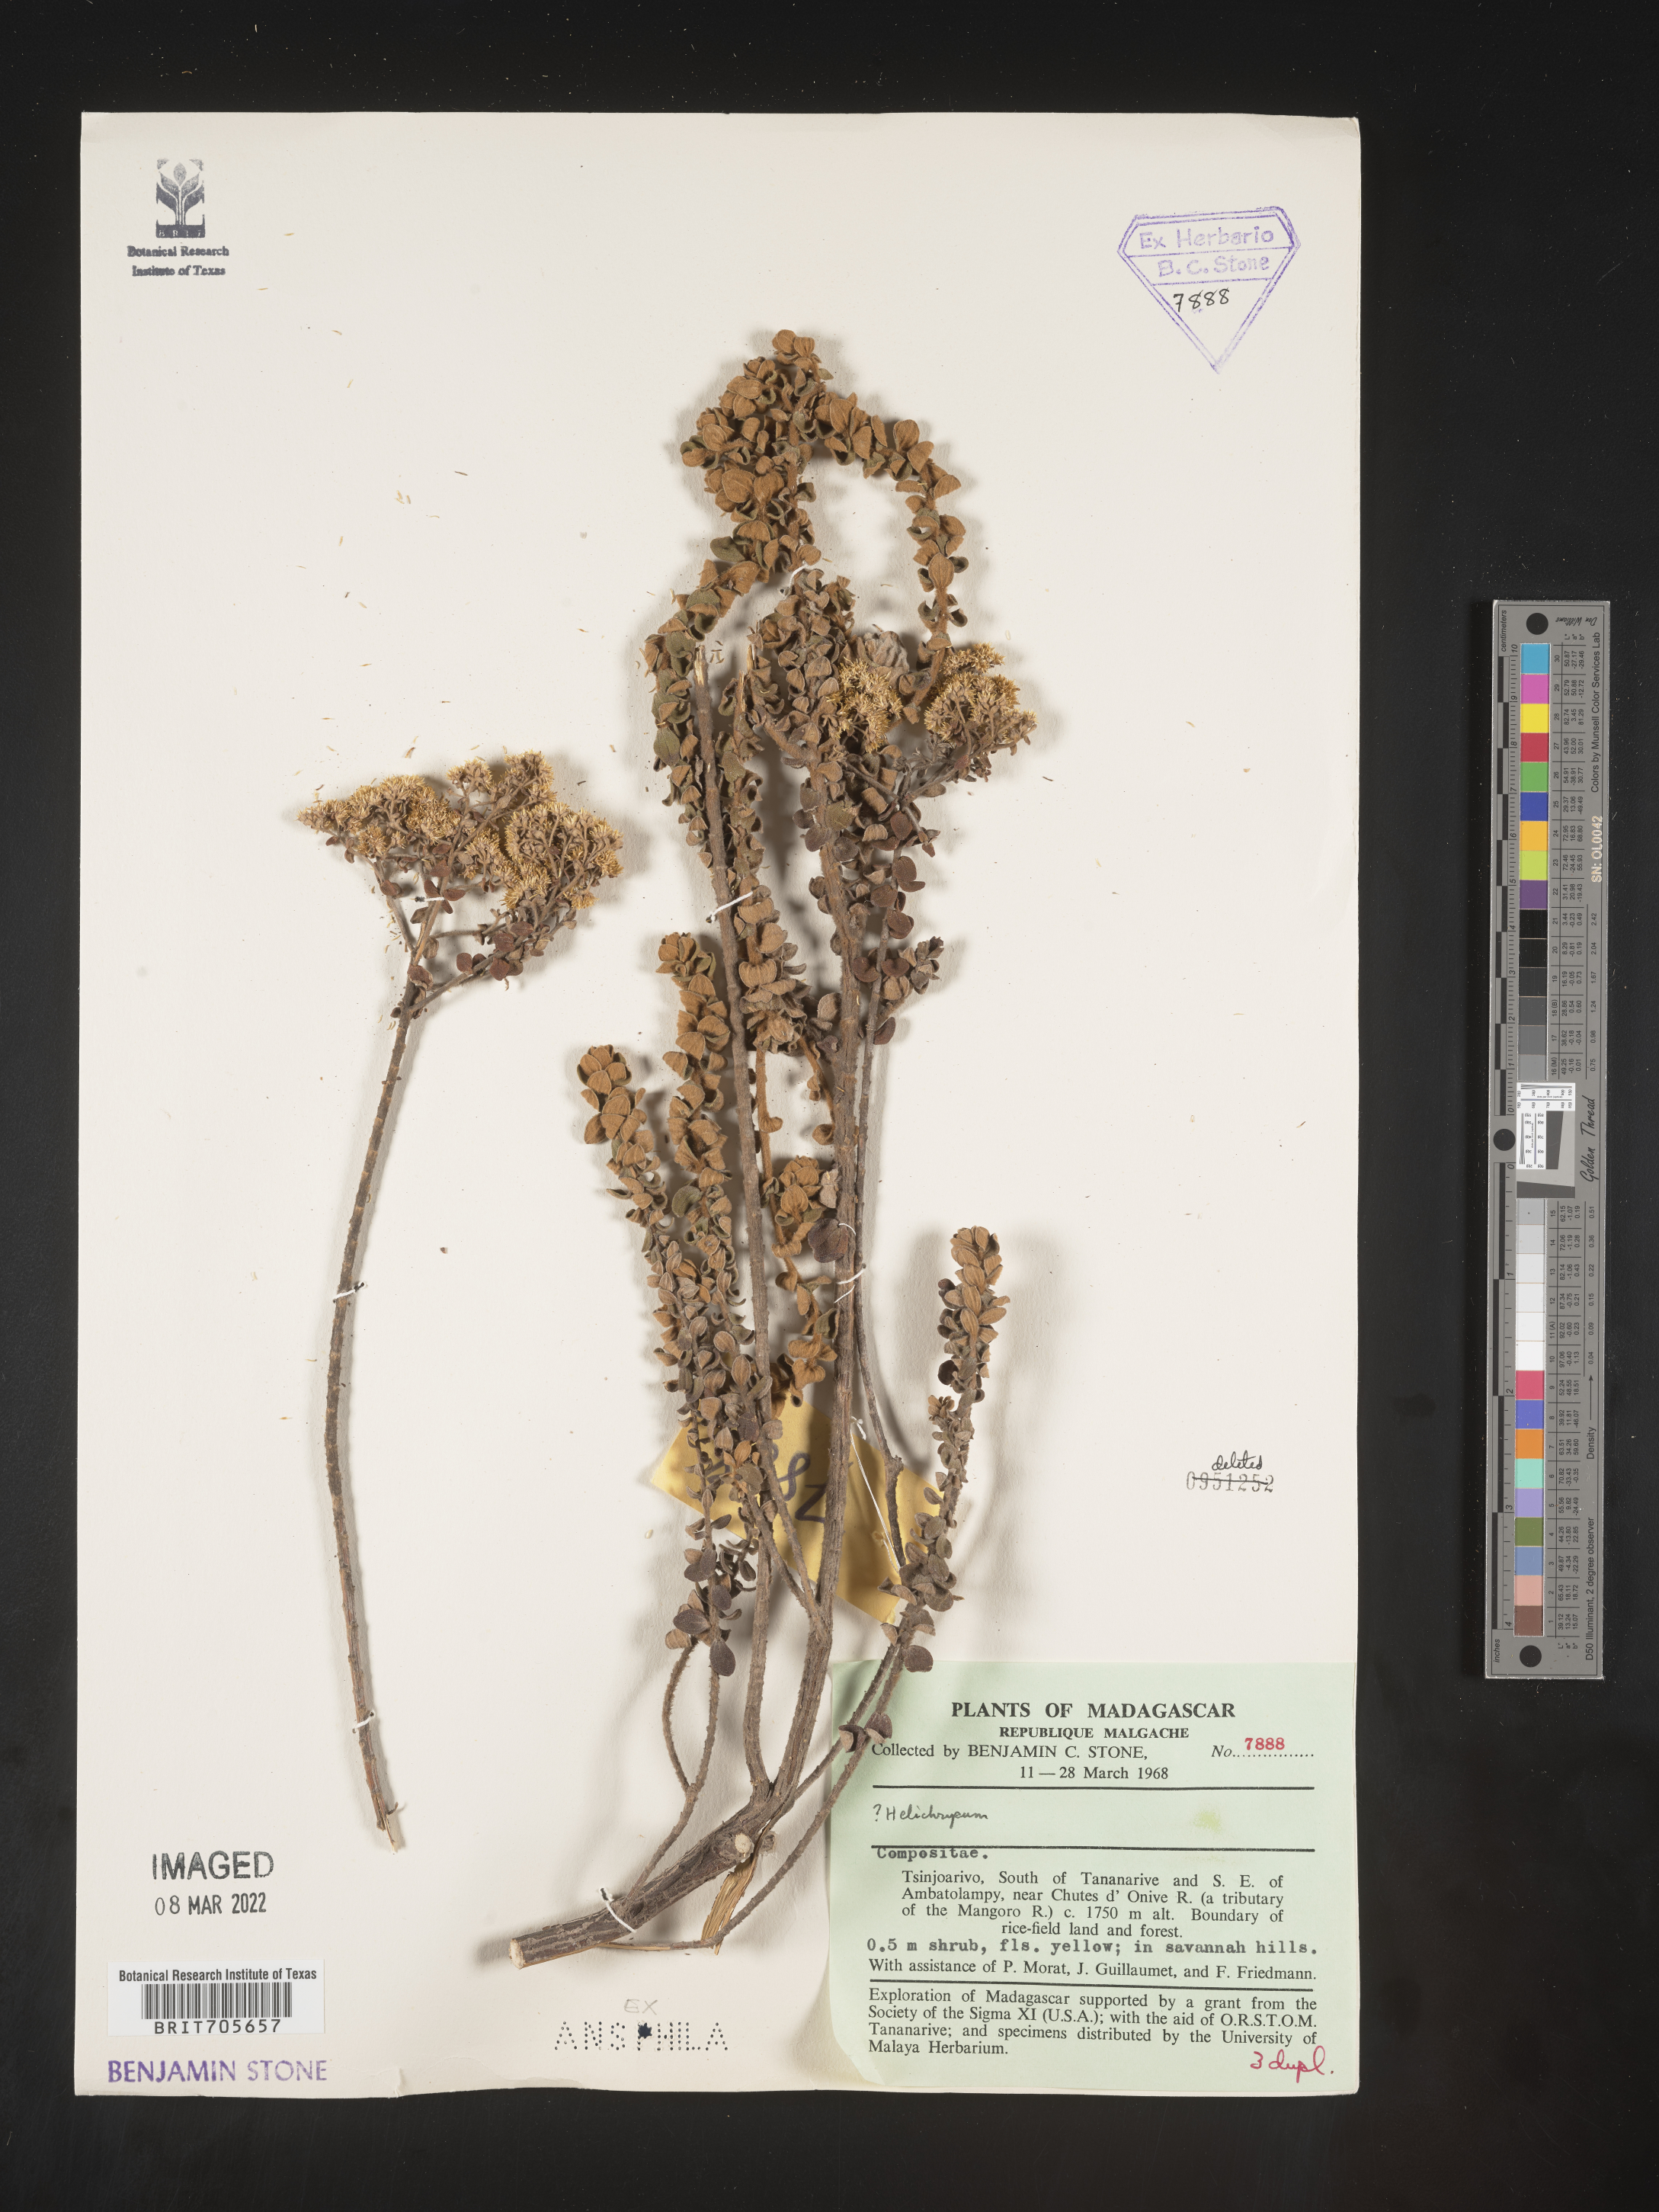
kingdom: Plantae
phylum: Tracheophyta
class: Magnoliopsida
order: Asterales
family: Asteraceae
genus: Helichrysum
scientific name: Helichrysum
